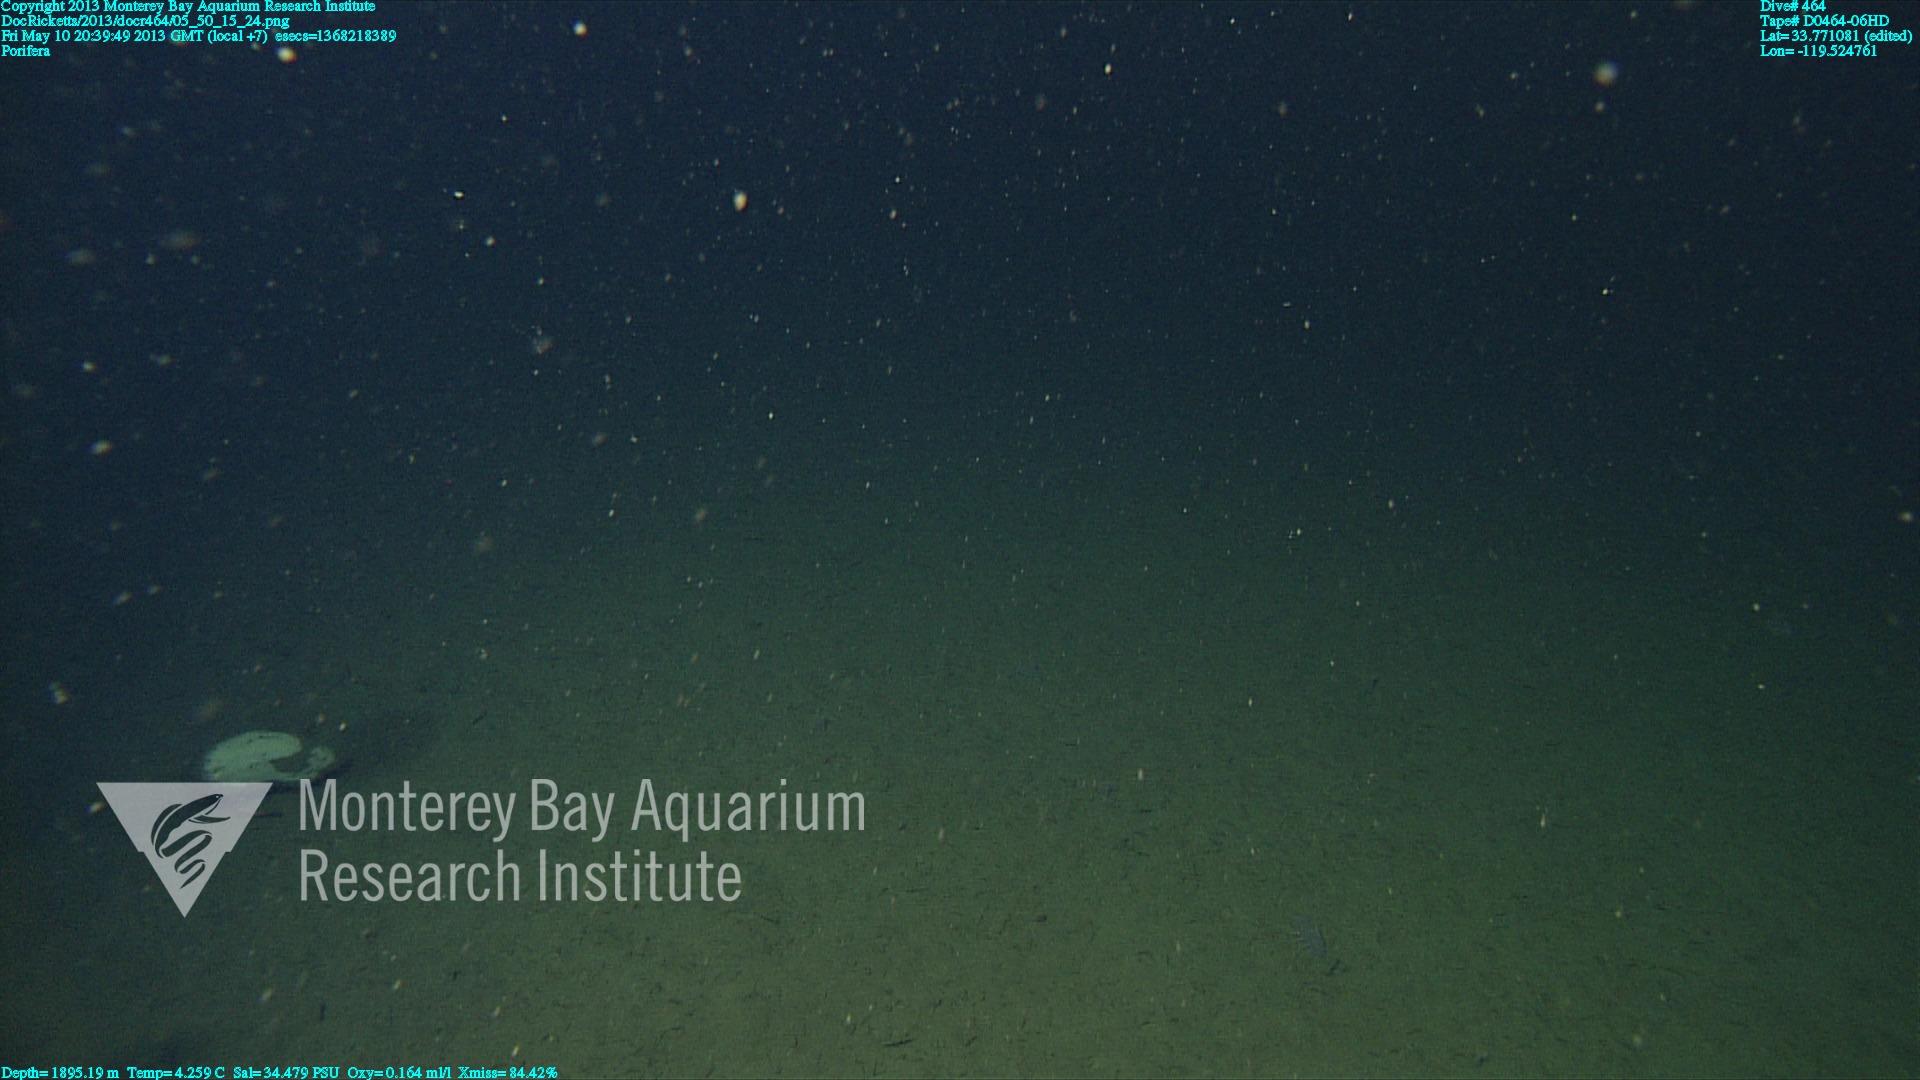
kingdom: Animalia
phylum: Porifera
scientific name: Porifera
